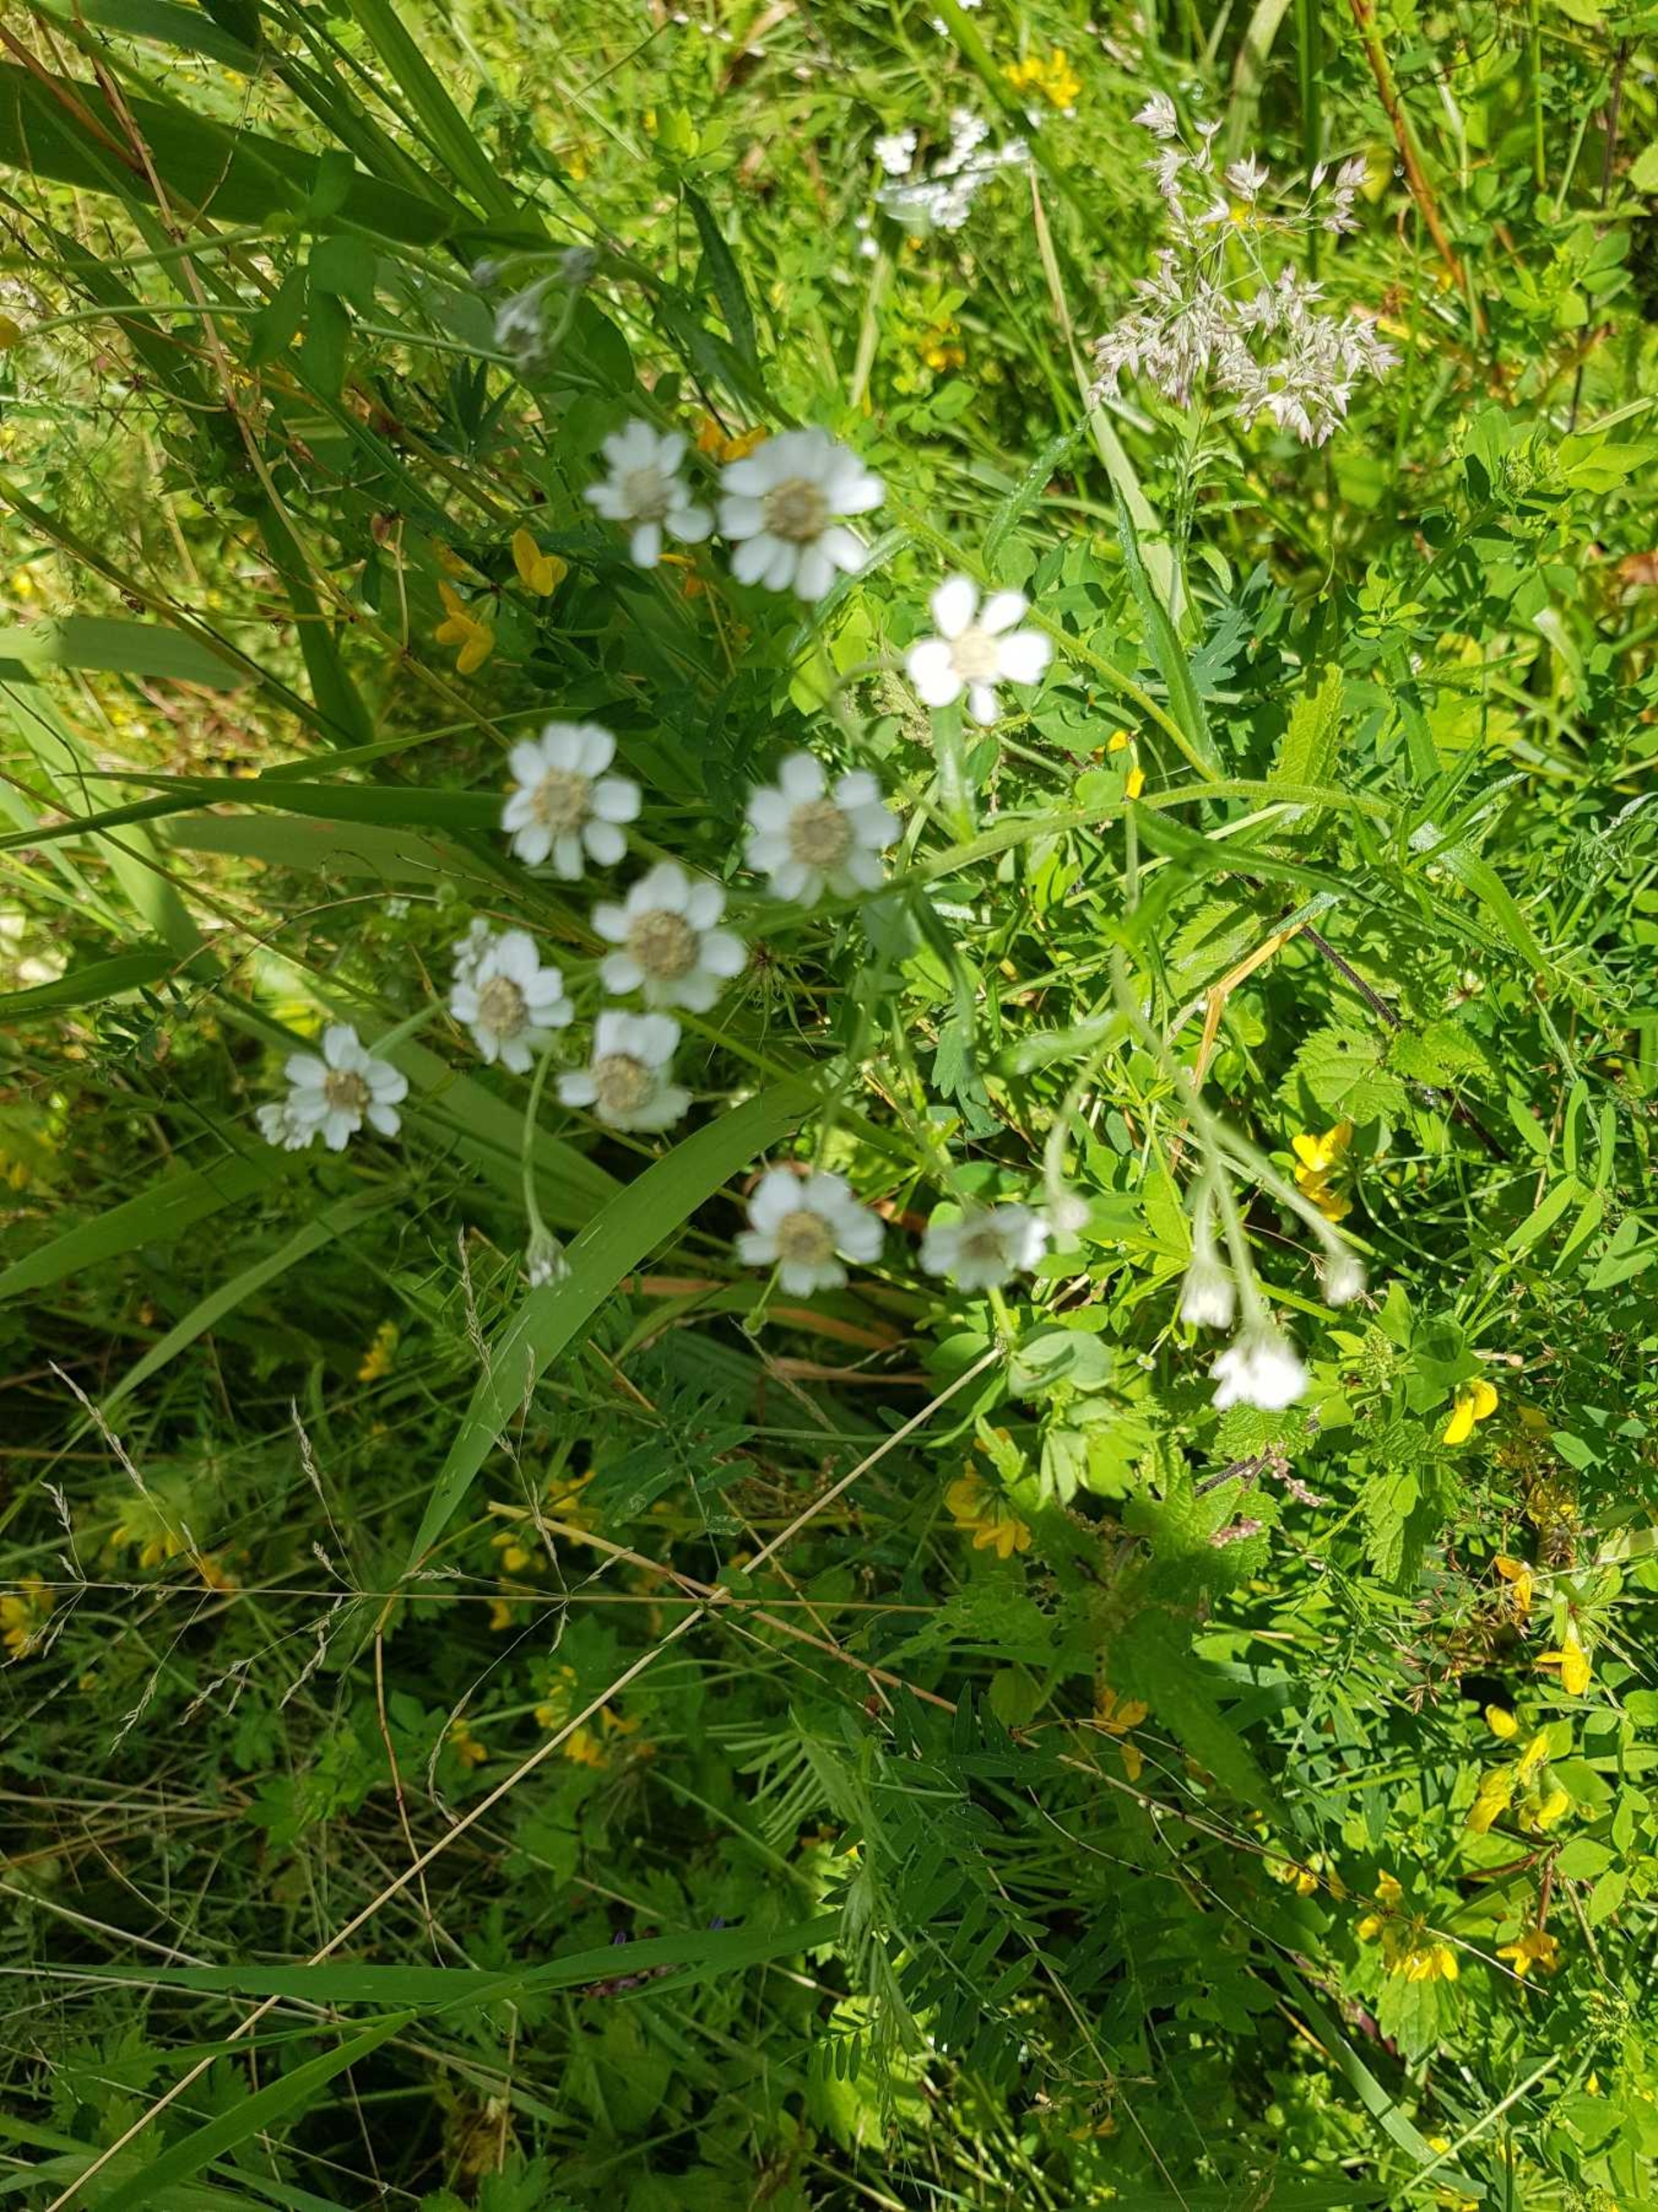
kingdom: Plantae
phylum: Tracheophyta
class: Magnoliopsida
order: Asterales
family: Asteraceae
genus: Achillea
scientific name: Achillea ptarmica
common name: Nyse-røllike
